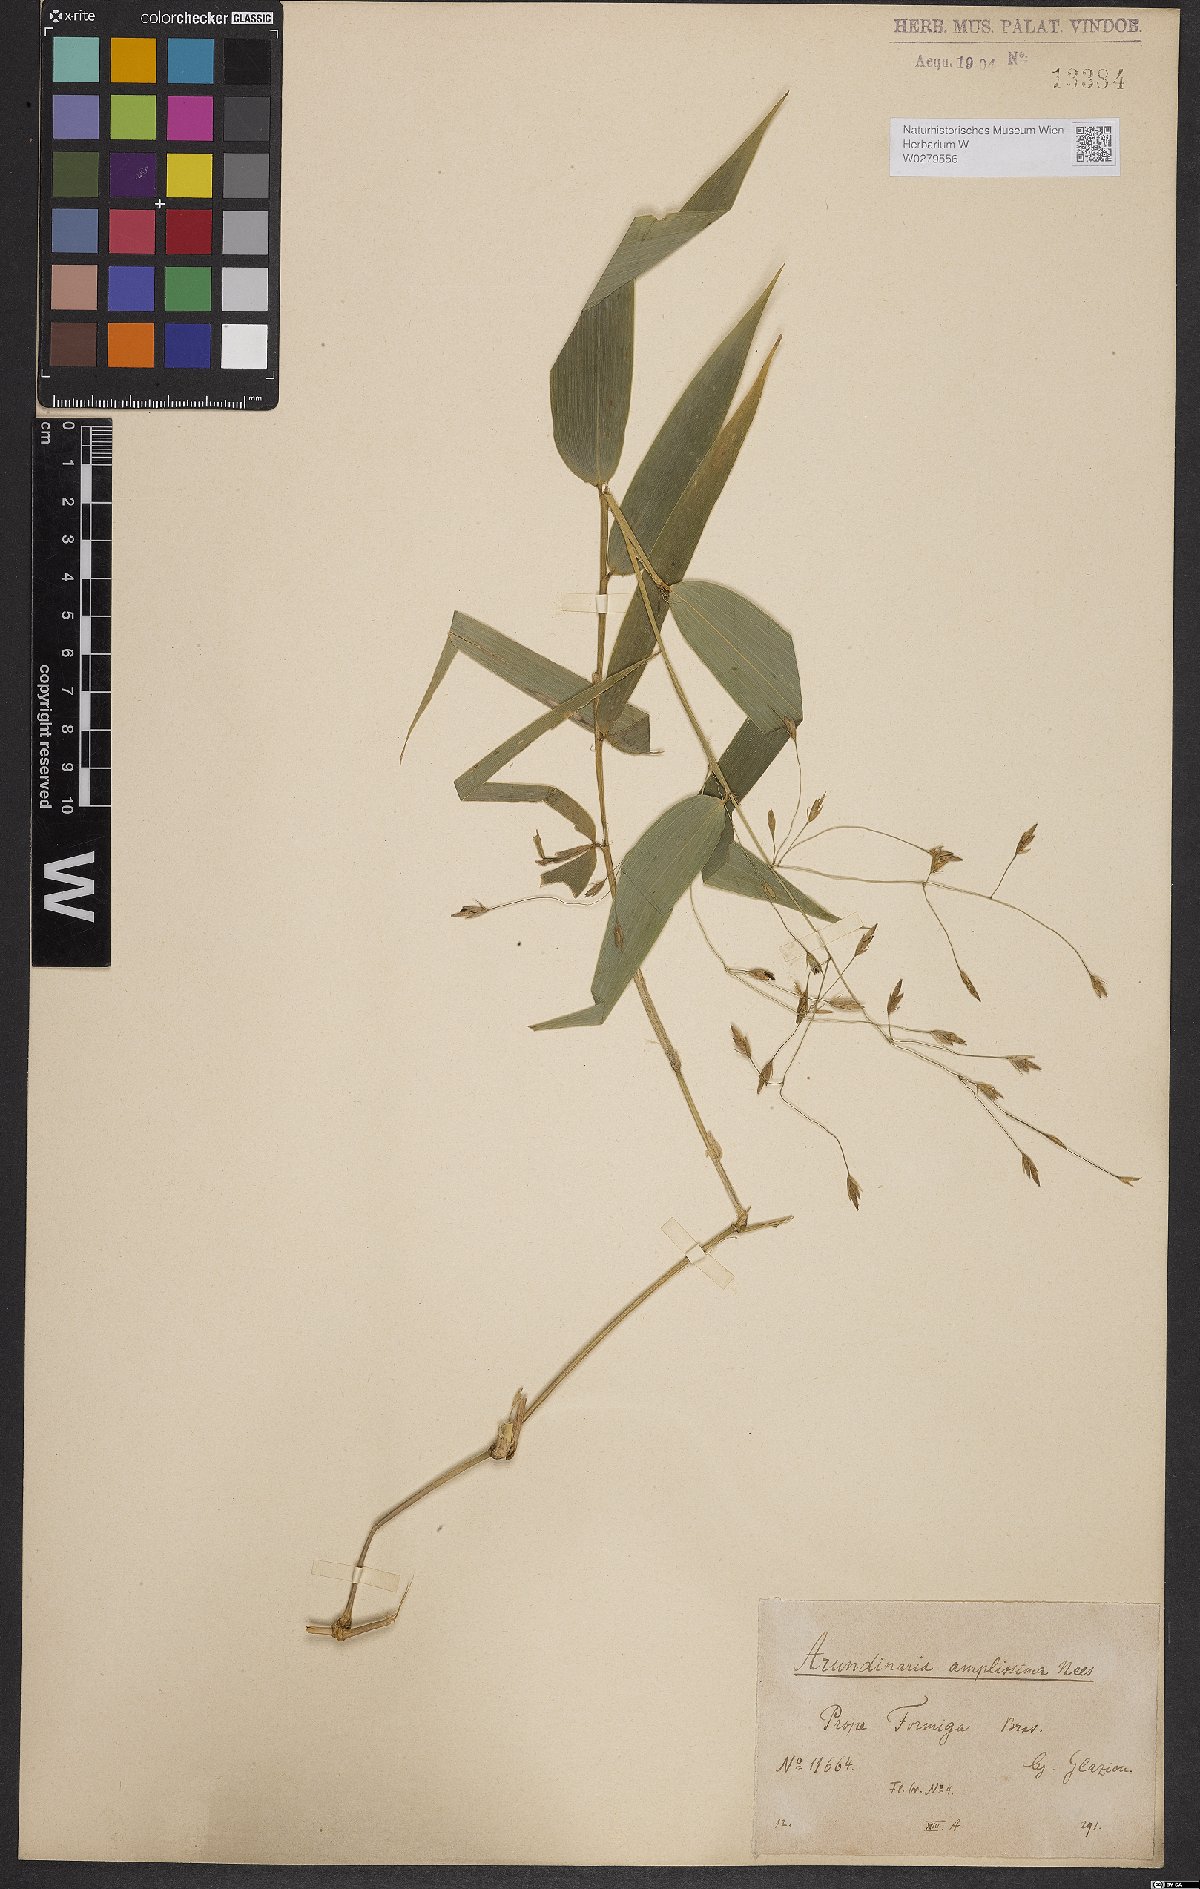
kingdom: Plantae
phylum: Tracheophyta
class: Liliopsida
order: Poales
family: Poaceae
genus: Aulonemia
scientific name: Aulonemia amplissima
